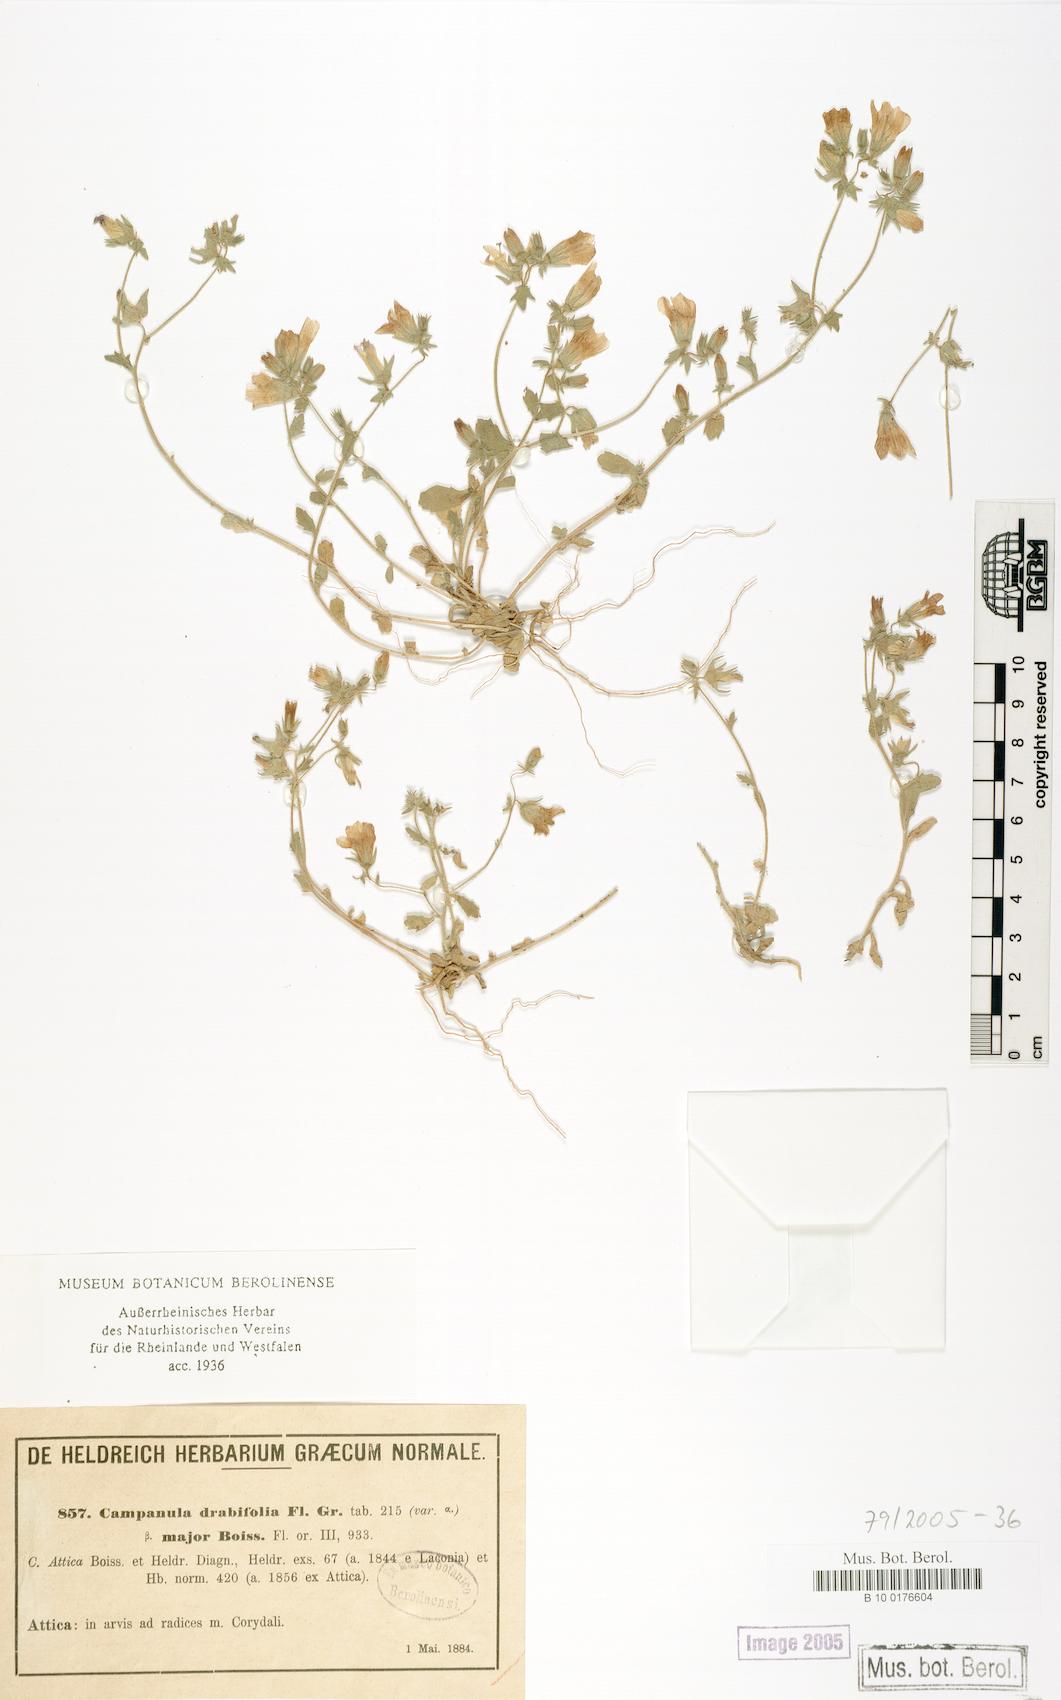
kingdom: Plantae
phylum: Tracheophyta
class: Magnoliopsida
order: Asterales
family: Campanulaceae
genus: Campanula
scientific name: Campanula drabifolia
